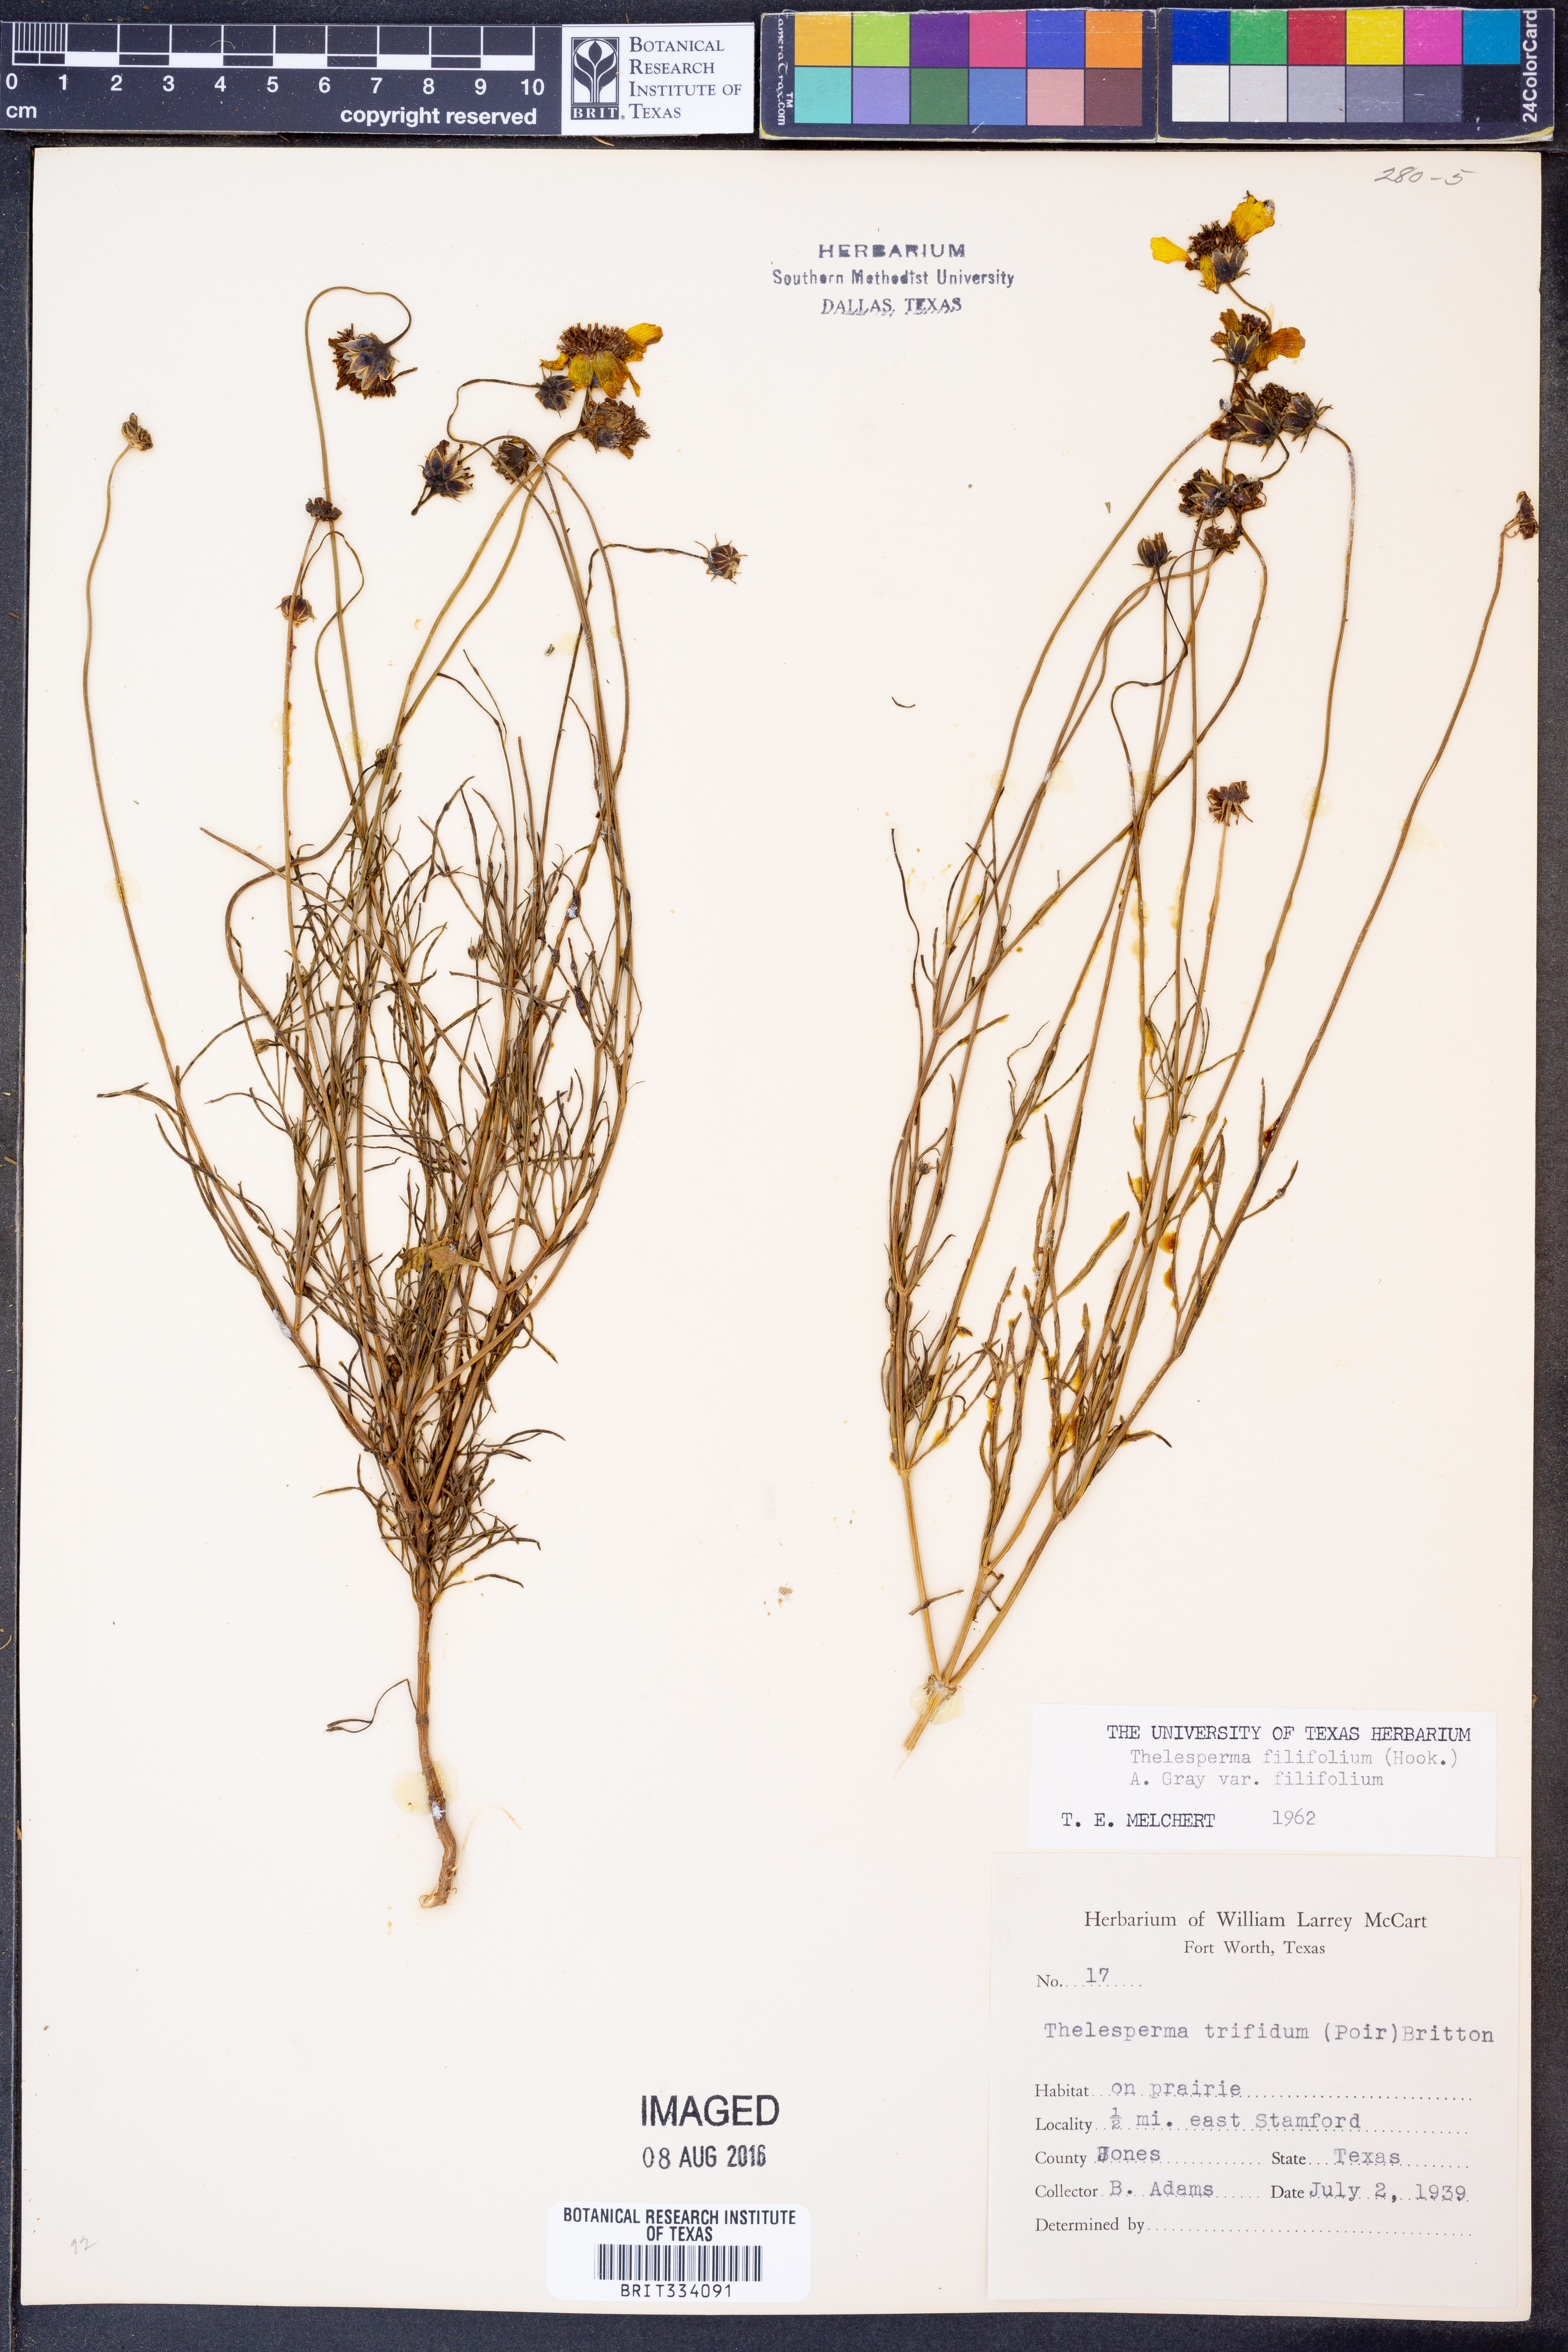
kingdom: Plantae
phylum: Tracheophyta
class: Magnoliopsida
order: Asterales
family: Asteraceae
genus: Thelesperma
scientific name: Thelesperma filifolium
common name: Stiff greenthread
